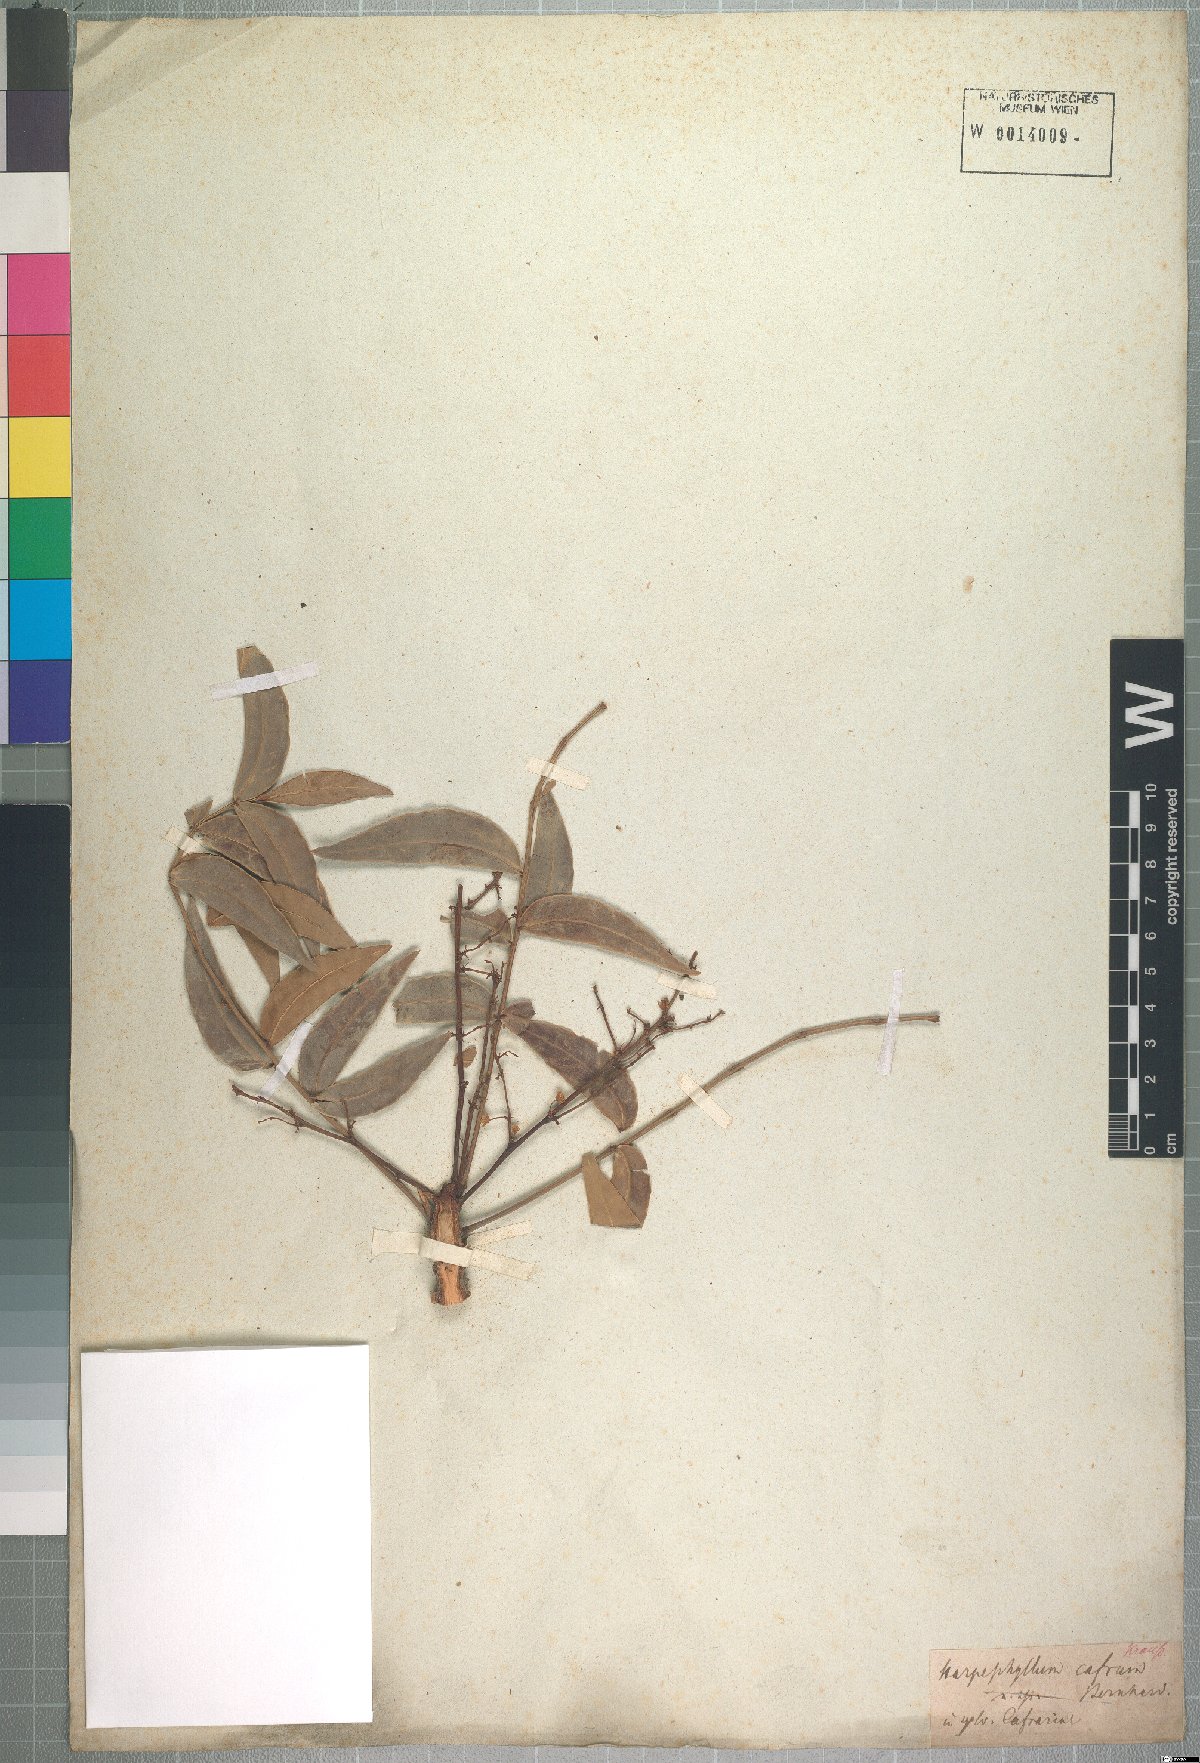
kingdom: Plantae
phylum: Tracheophyta
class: Magnoliopsida
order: Sapindales
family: Anacardiaceae
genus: Harpephyllum
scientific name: Harpephyllum caffrum
